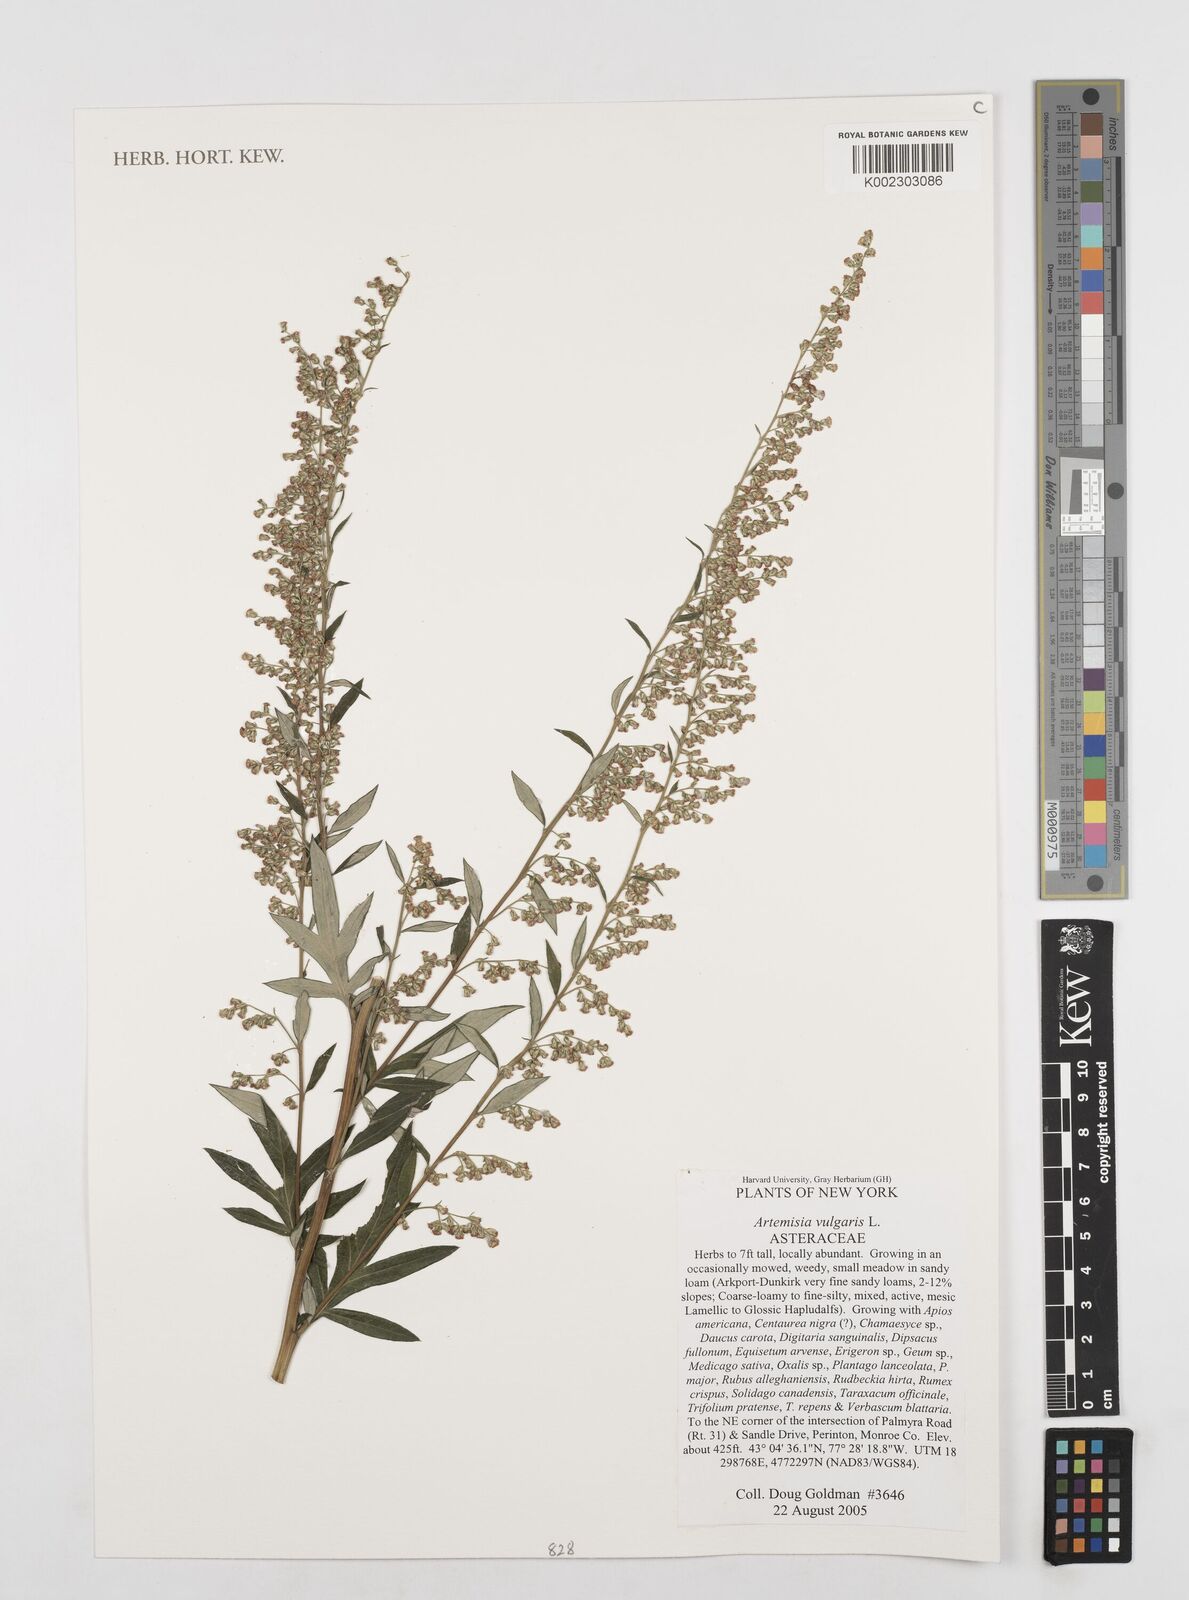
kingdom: Plantae
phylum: Tracheophyta
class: Magnoliopsida
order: Asterales
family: Asteraceae
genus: Artemisia
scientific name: Artemisia vulgaris
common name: Mugwort
